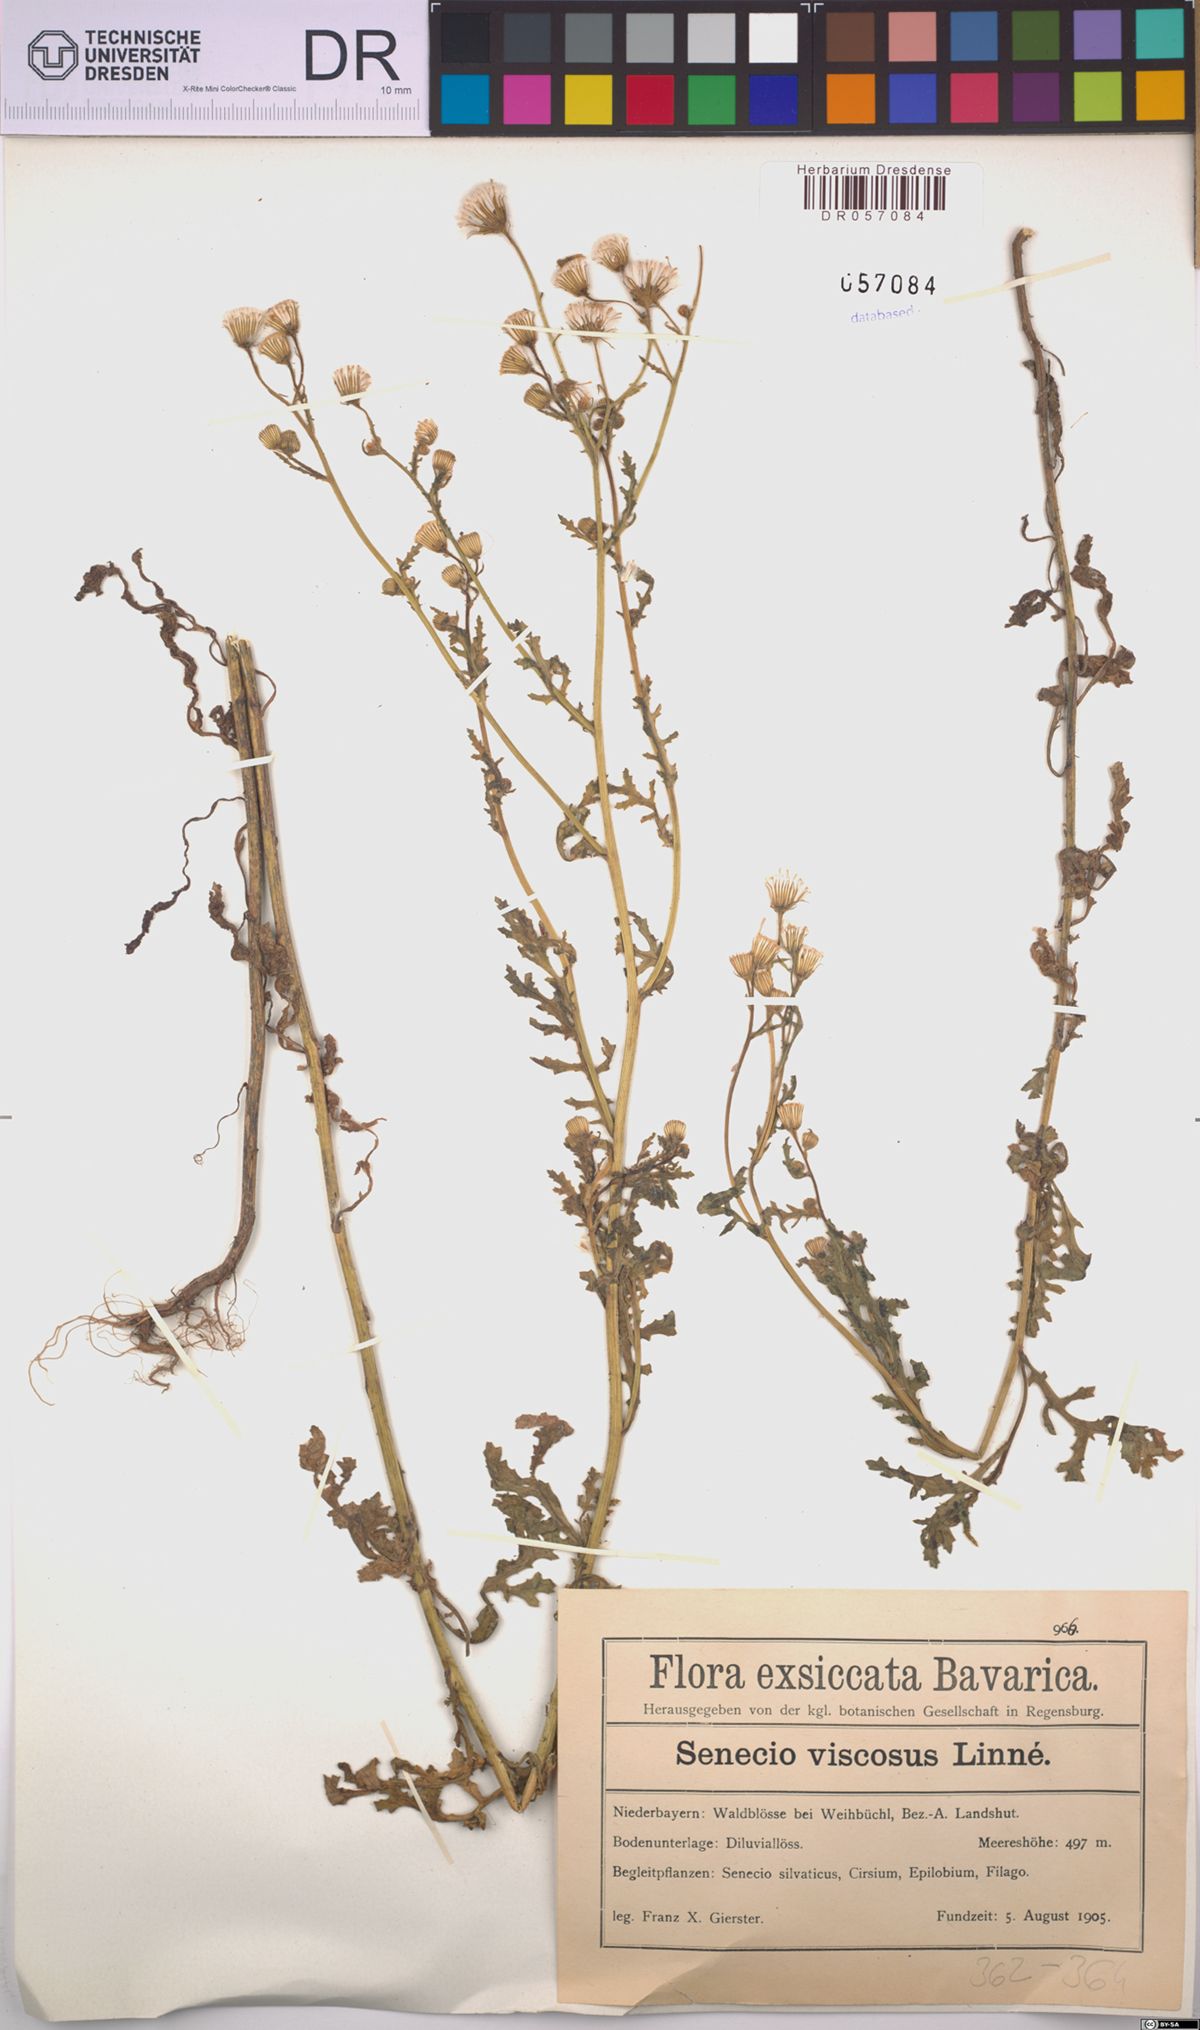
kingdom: Plantae
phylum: Tracheophyta
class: Magnoliopsida
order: Asterales
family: Asteraceae
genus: Senecio
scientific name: Senecio viscosus
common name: Sticky groundsel
